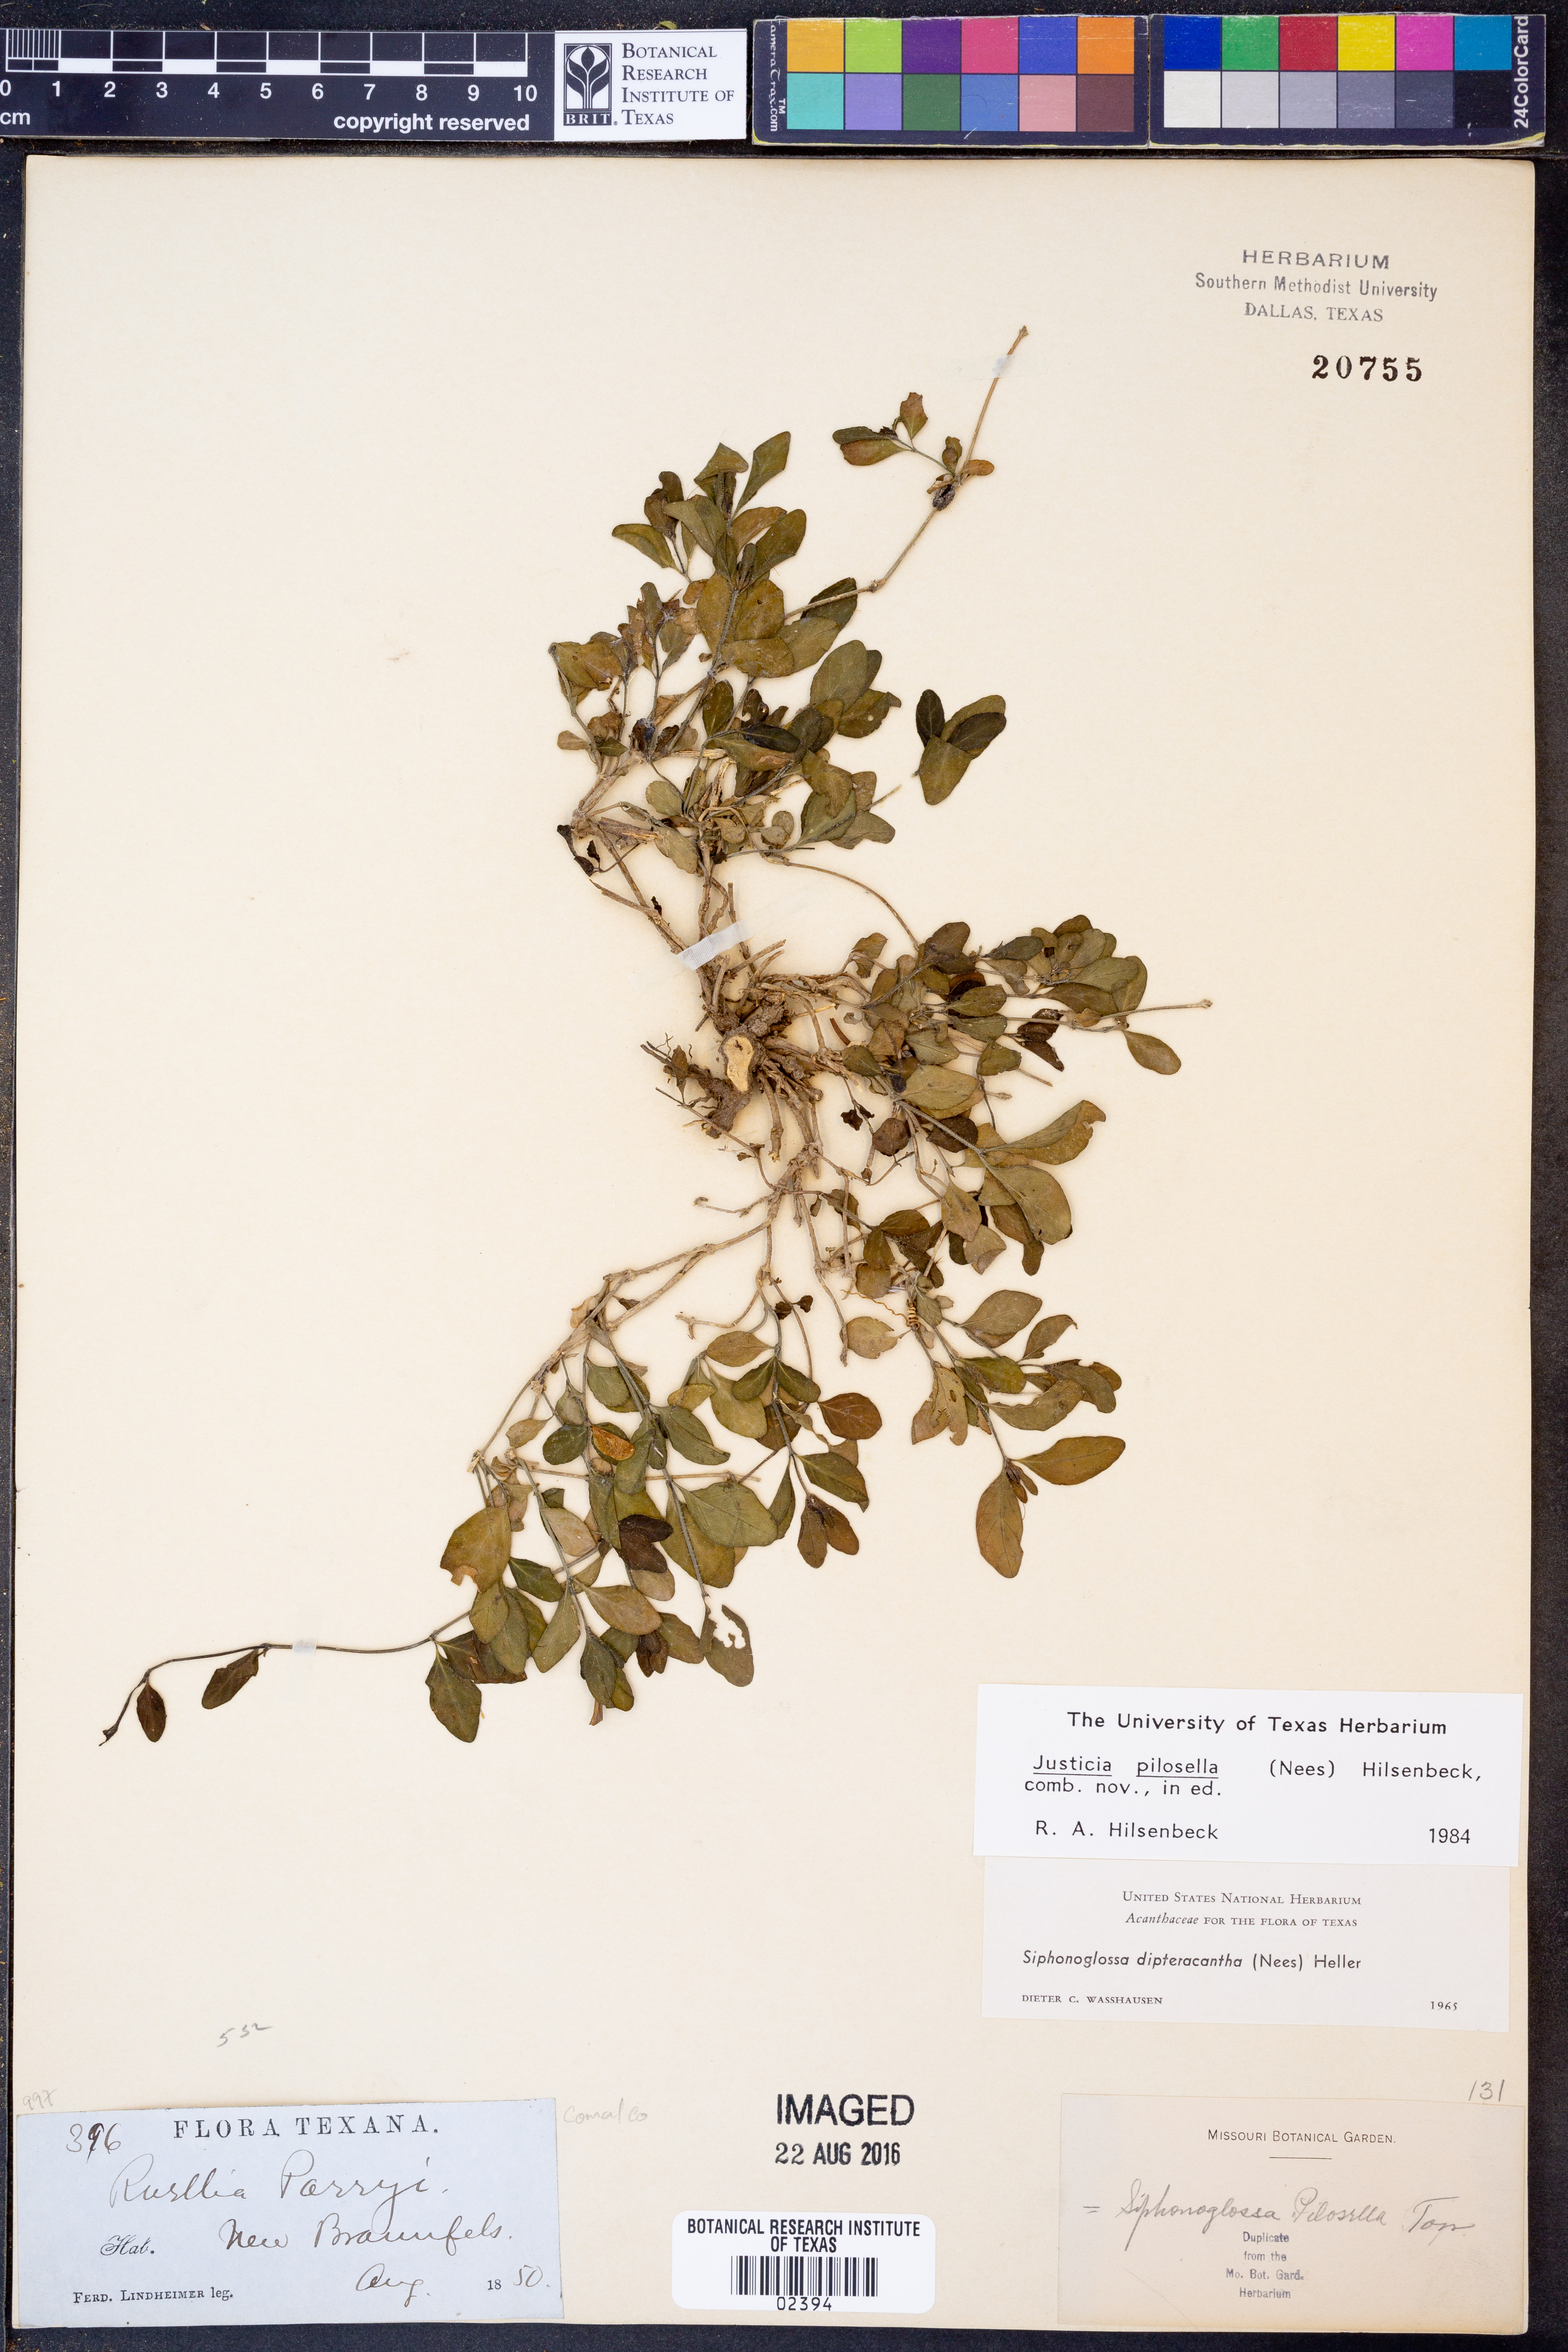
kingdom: Plantae
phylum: Tracheophyta
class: Magnoliopsida
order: Lamiales
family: Acanthaceae
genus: Justicia
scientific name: Justicia pilosella
